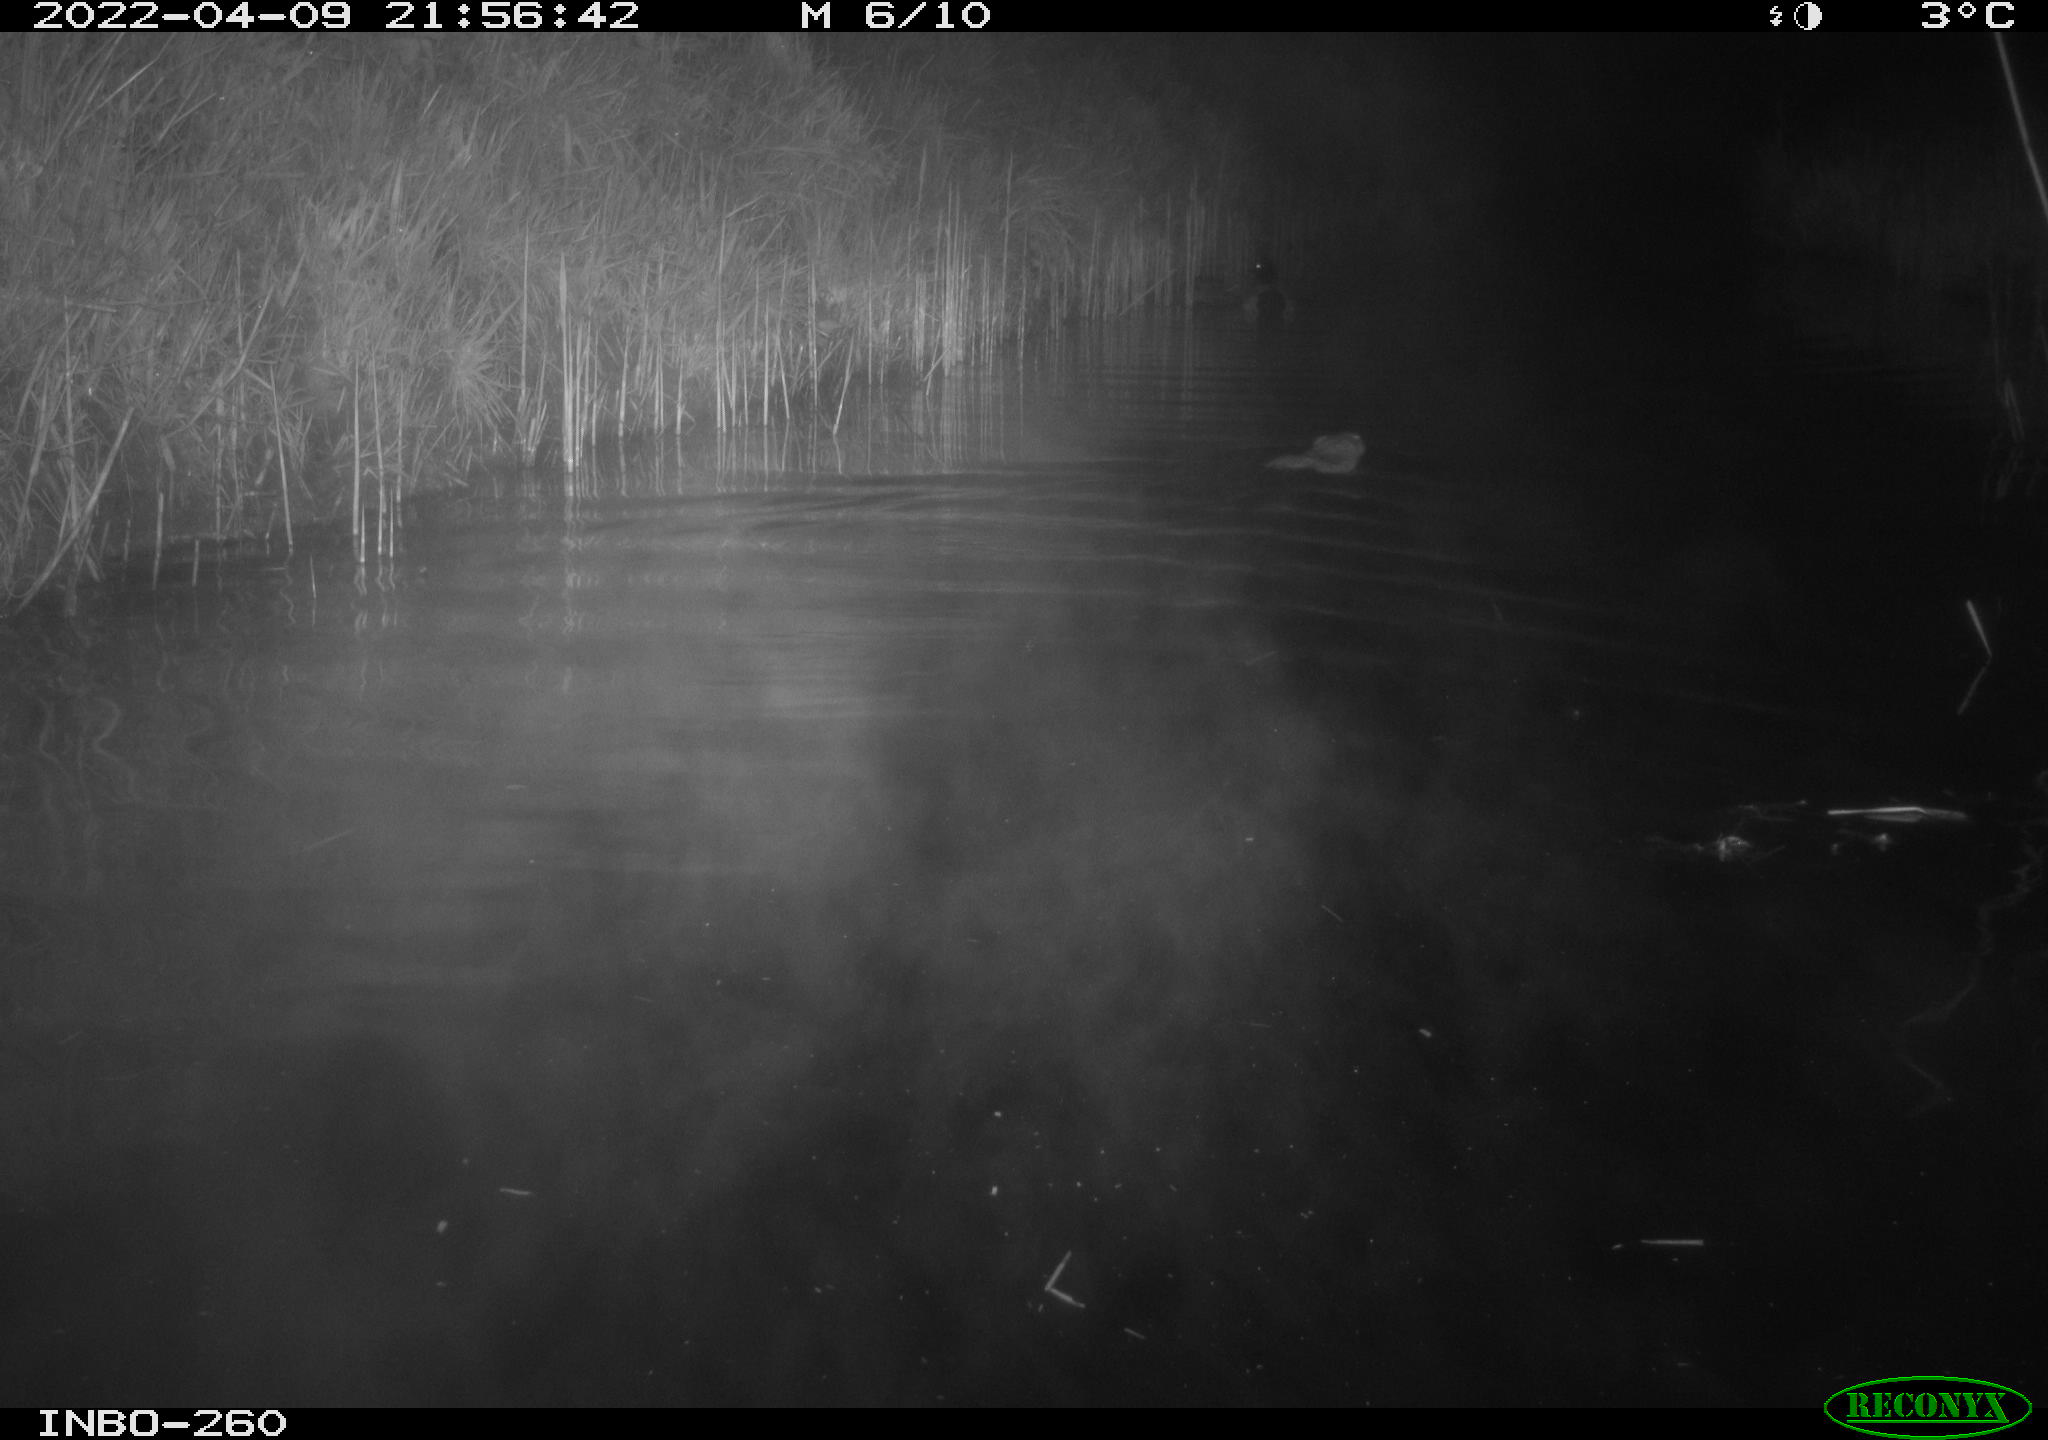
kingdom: Animalia
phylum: Chordata
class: Mammalia
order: Rodentia
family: Cricetidae
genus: Ondatra
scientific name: Ondatra zibethicus
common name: Muskrat
